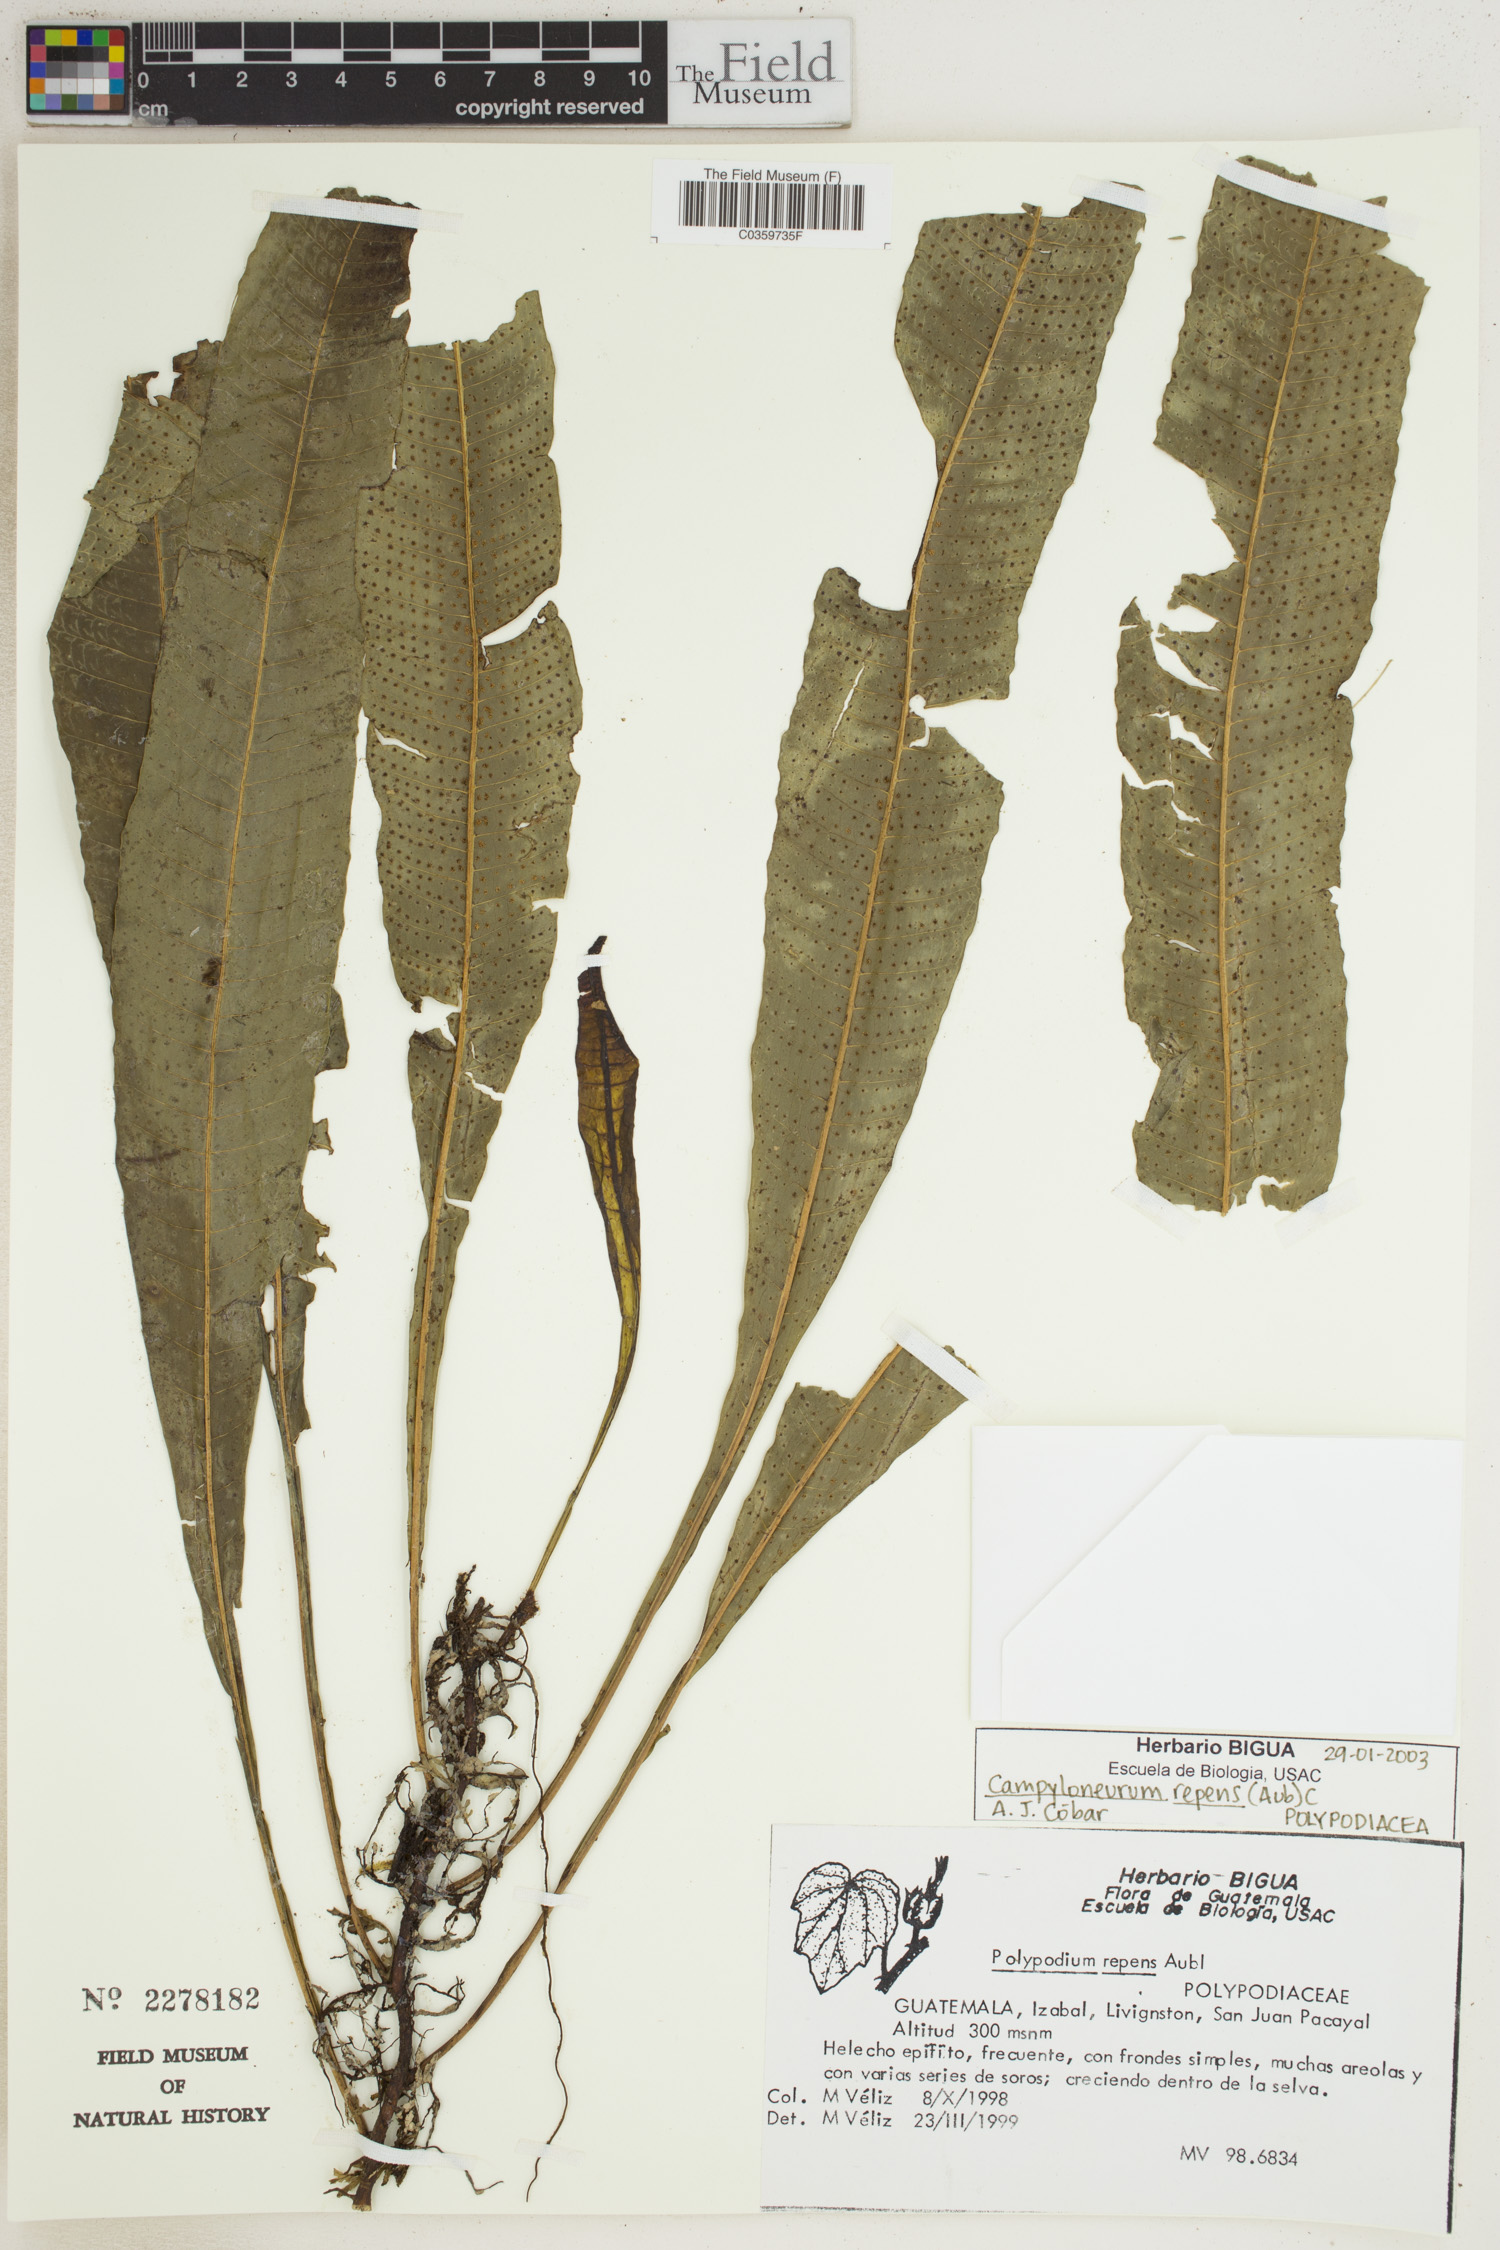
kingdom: Plantae
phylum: Tracheophyta
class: Polypodiopsida
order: Polypodiales
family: Polypodiaceae
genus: Campyloneurum
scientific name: Campyloneurum repens
